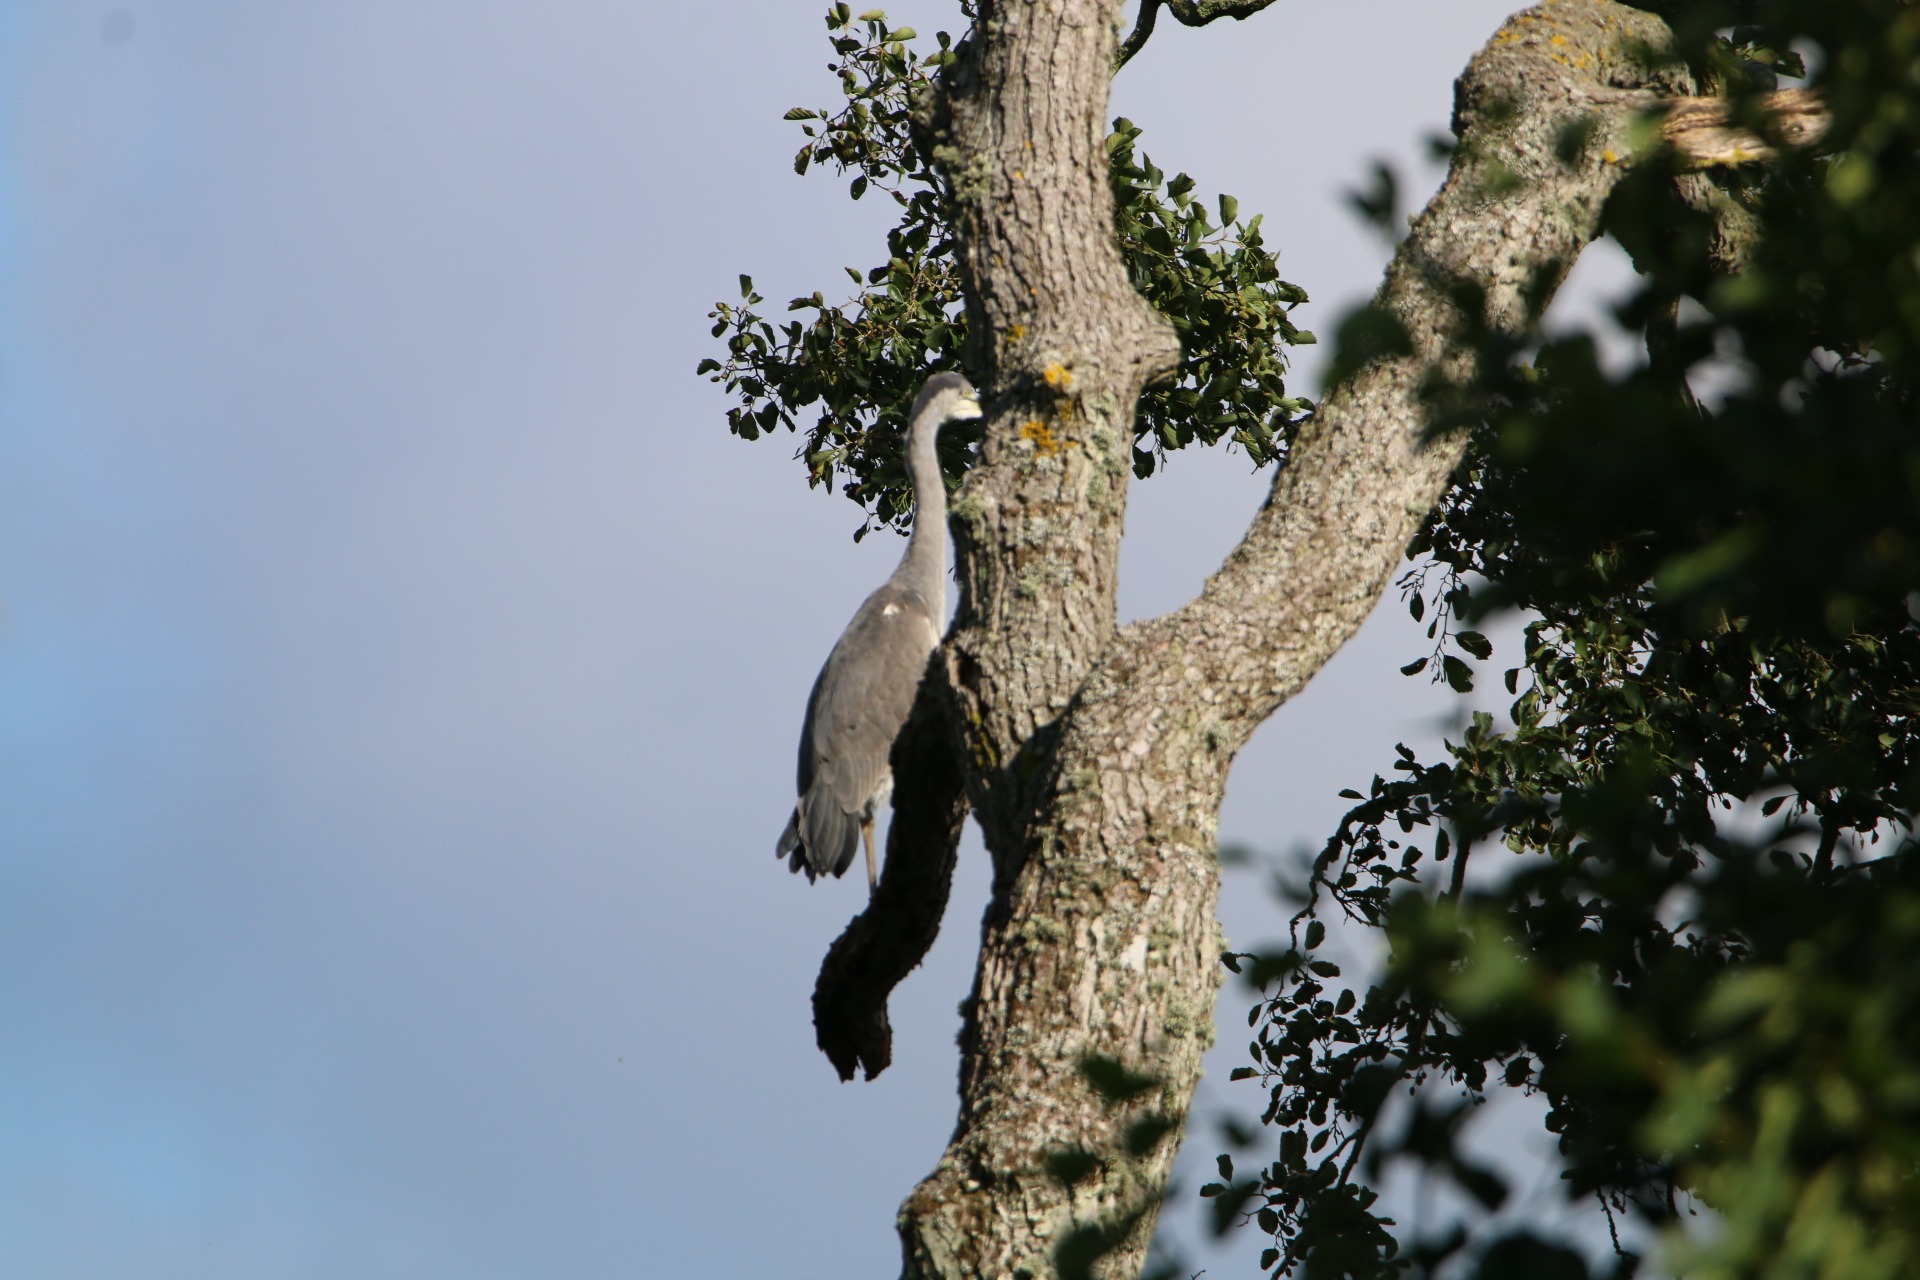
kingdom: Animalia
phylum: Chordata
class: Aves
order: Pelecaniformes
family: Ardeidae
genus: Ardea
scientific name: Ardea cinerea
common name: Fiskehejre
